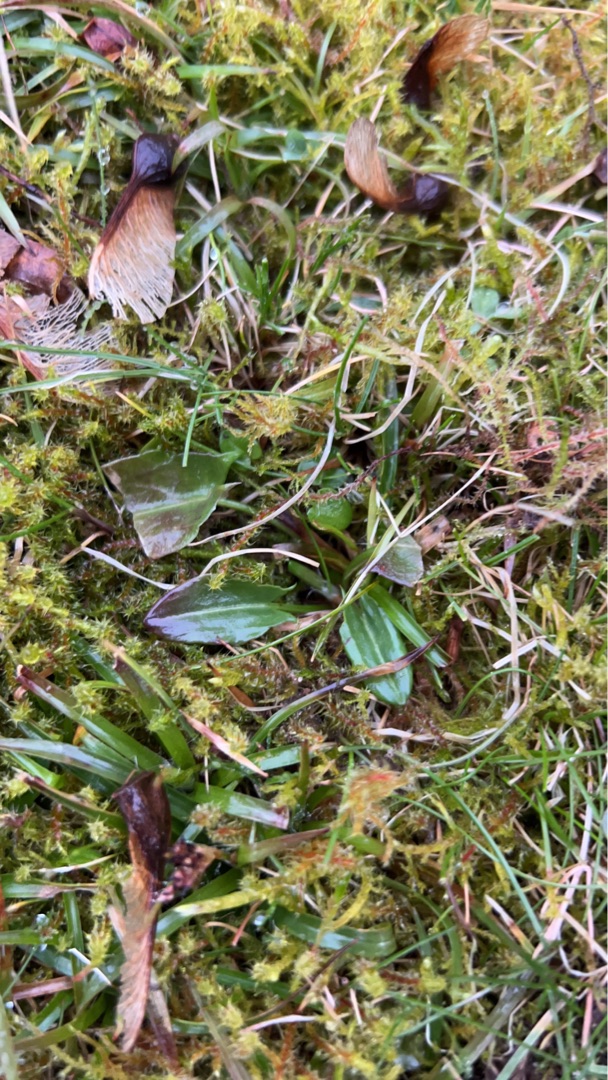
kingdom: Plantae
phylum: Tracheophyta
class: Magnoliopsida
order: Caryophyllales
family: Polygonaceae
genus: Rumex
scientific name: Rumex acetosa
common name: Almindelig syre
